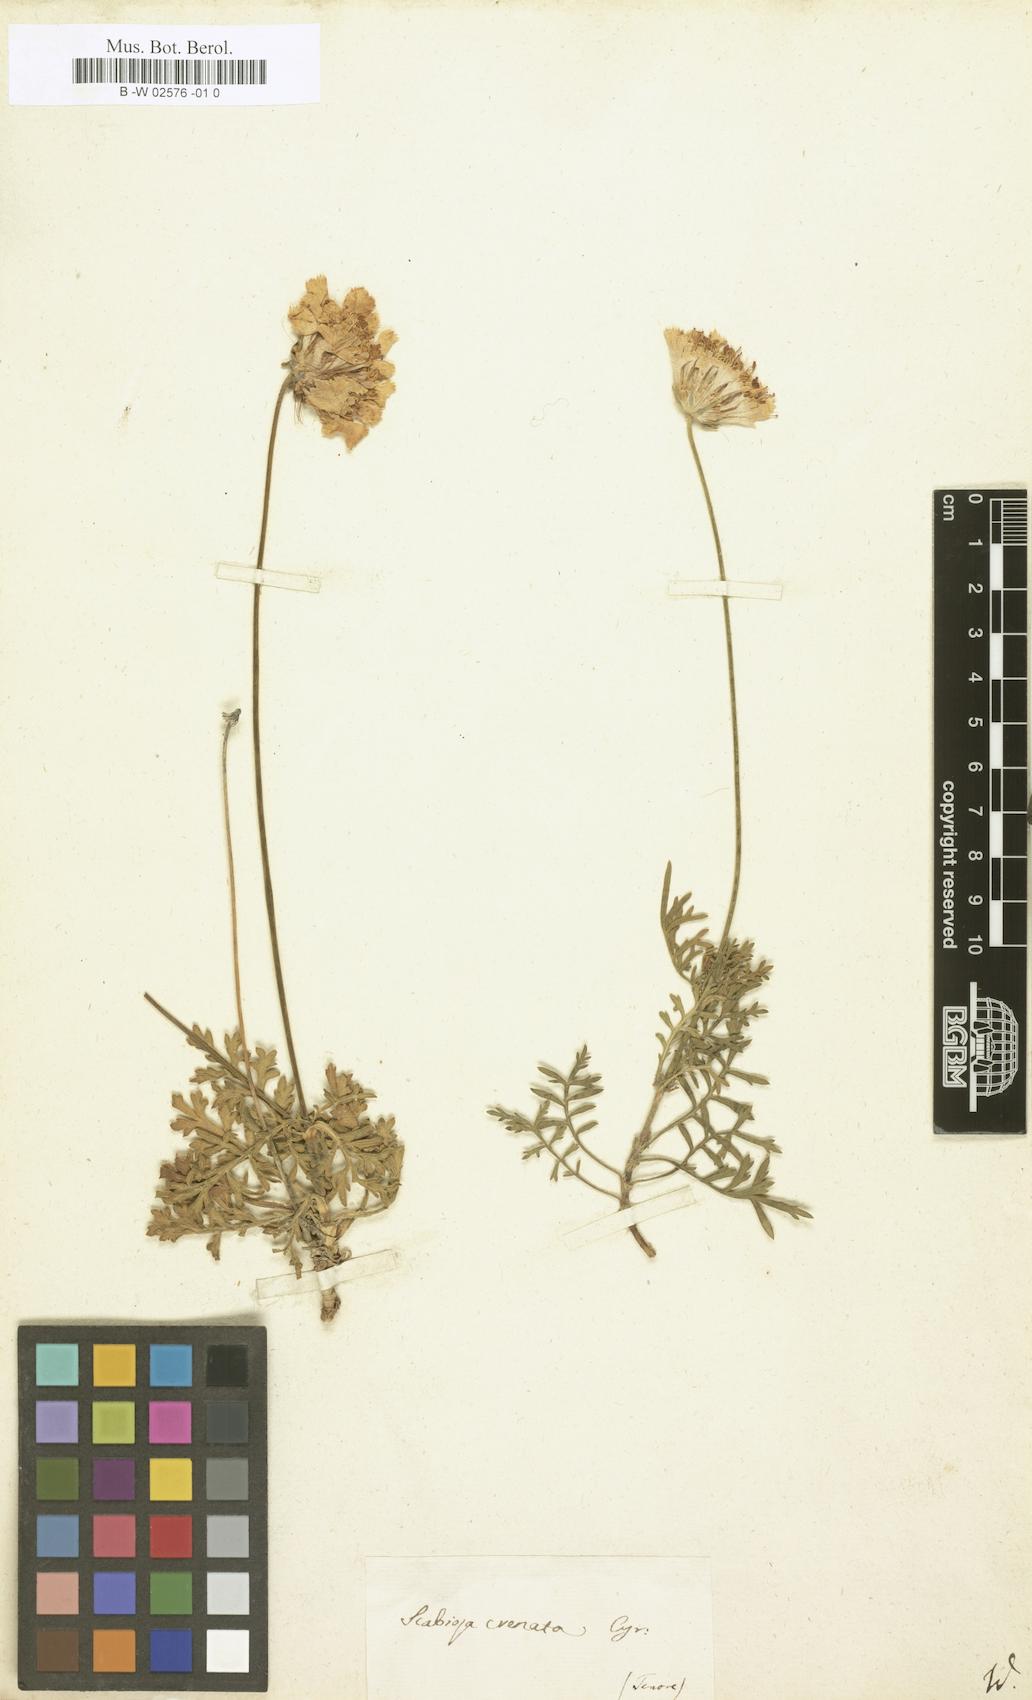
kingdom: Plantae
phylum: Tracheophyta
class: Magnoliopsida
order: Dipsacales
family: Caprifoliaceae
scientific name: Caprifoliaceae
